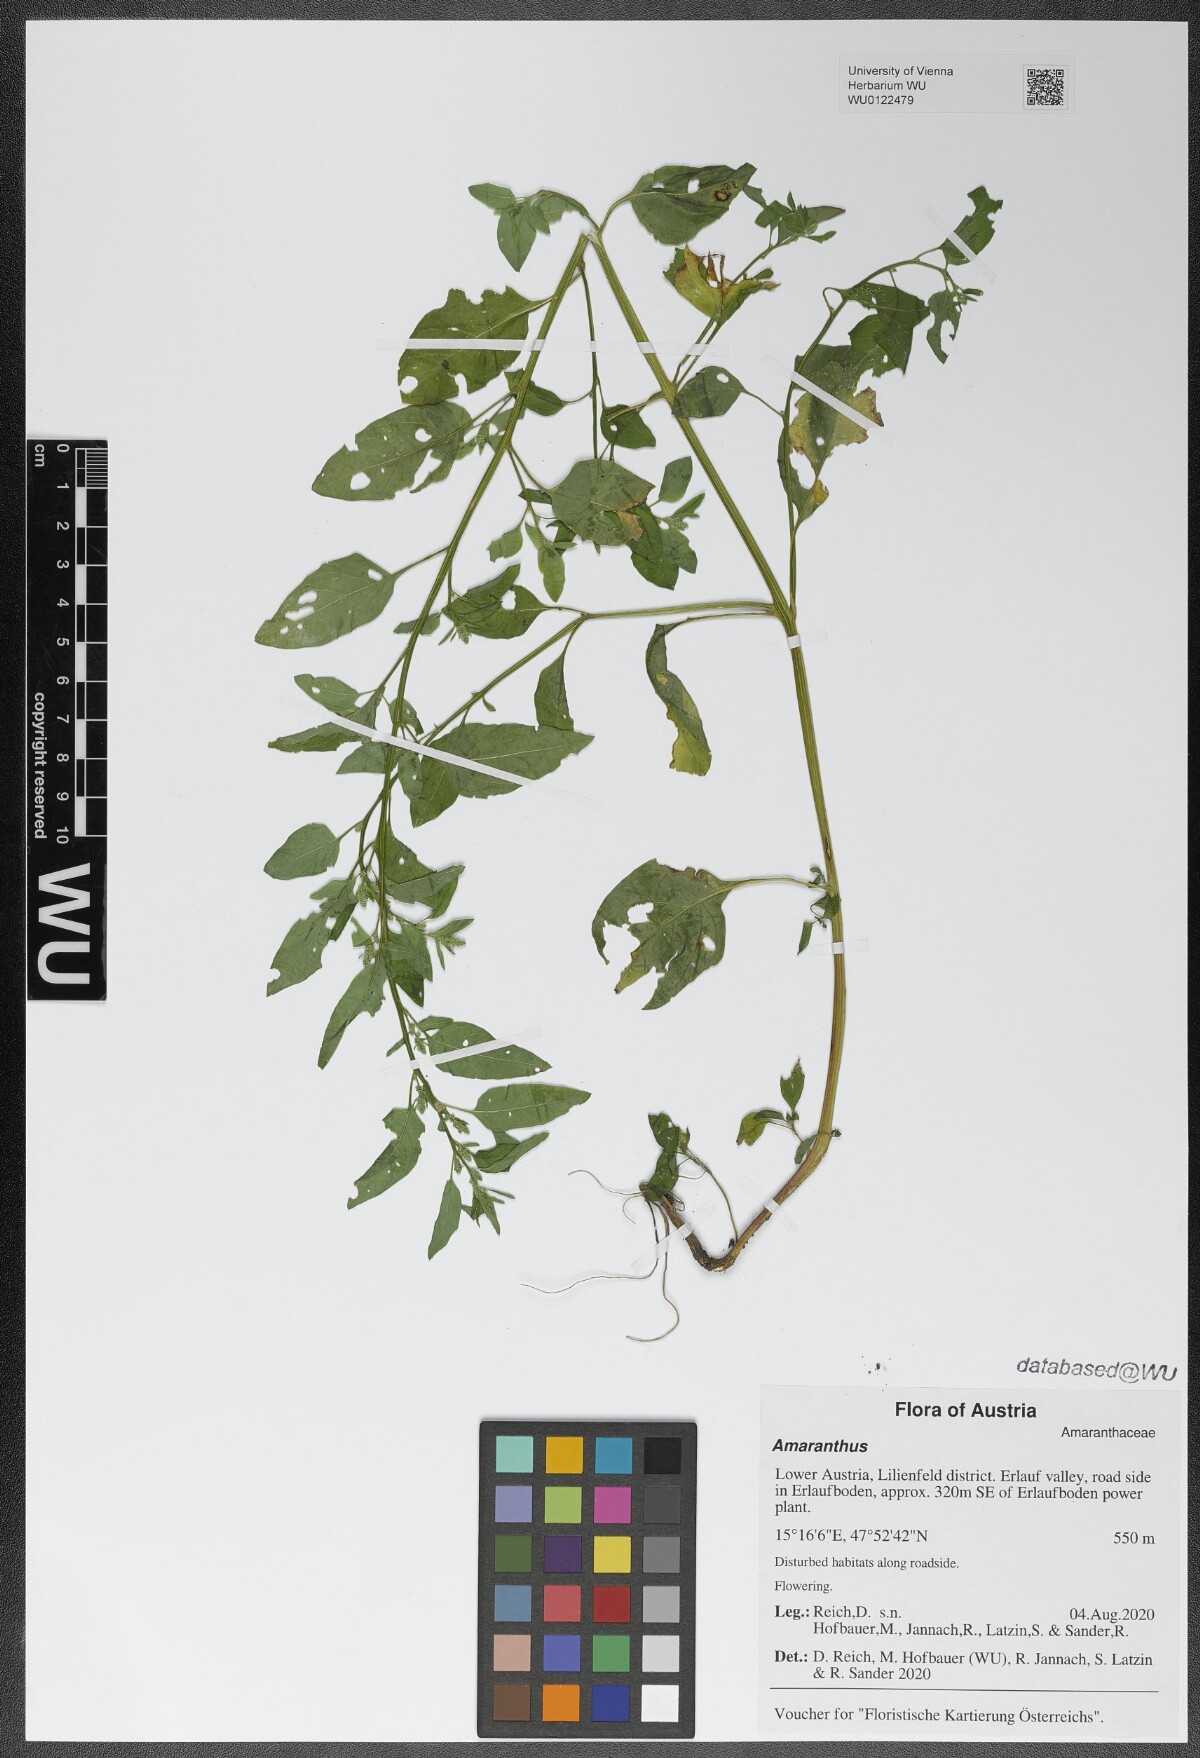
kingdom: Plantae
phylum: Tracheophyta
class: Magnoliopsida
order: Caryophyllales
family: Amaranthaceae
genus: Lipandra
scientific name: Lipandra polysperma
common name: Many-seed goosefoot
